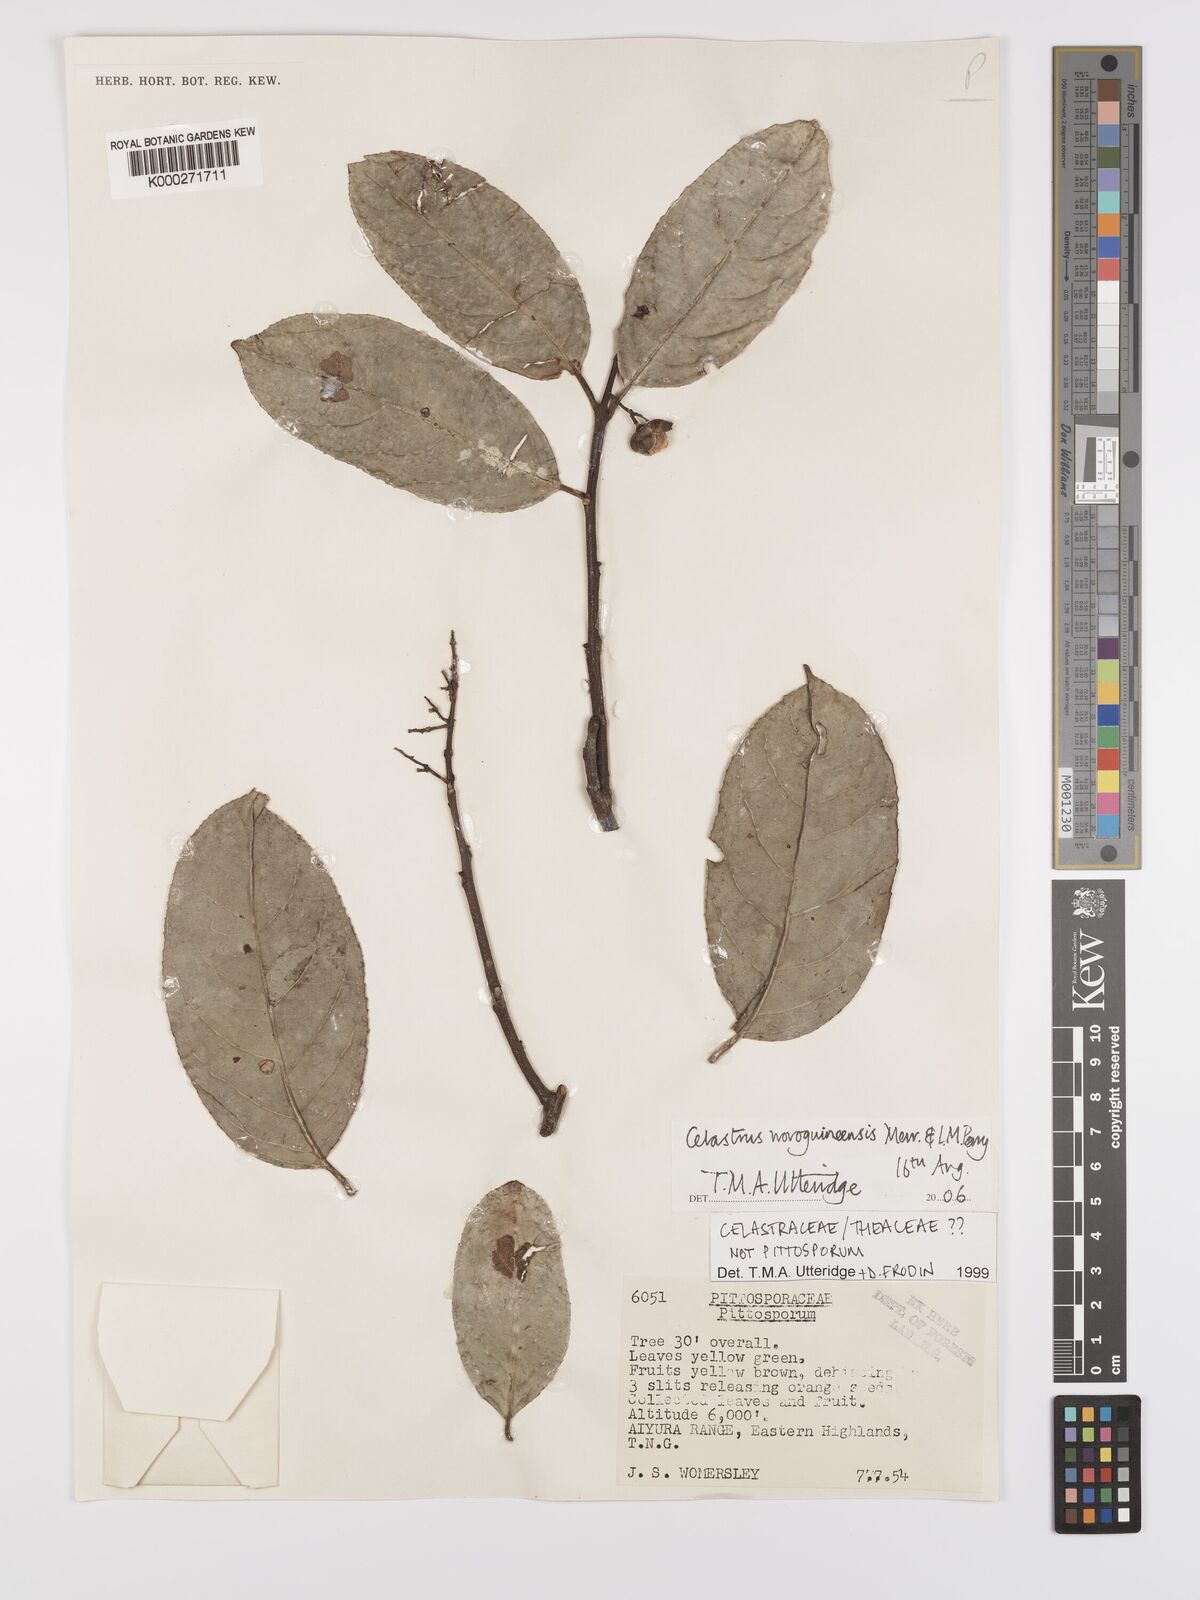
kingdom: Plantae
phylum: Tracheophyta
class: Magnoliopsida
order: Celastrales
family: Celastraceae
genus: Celastrus
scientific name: Celastrus novoguineensis
